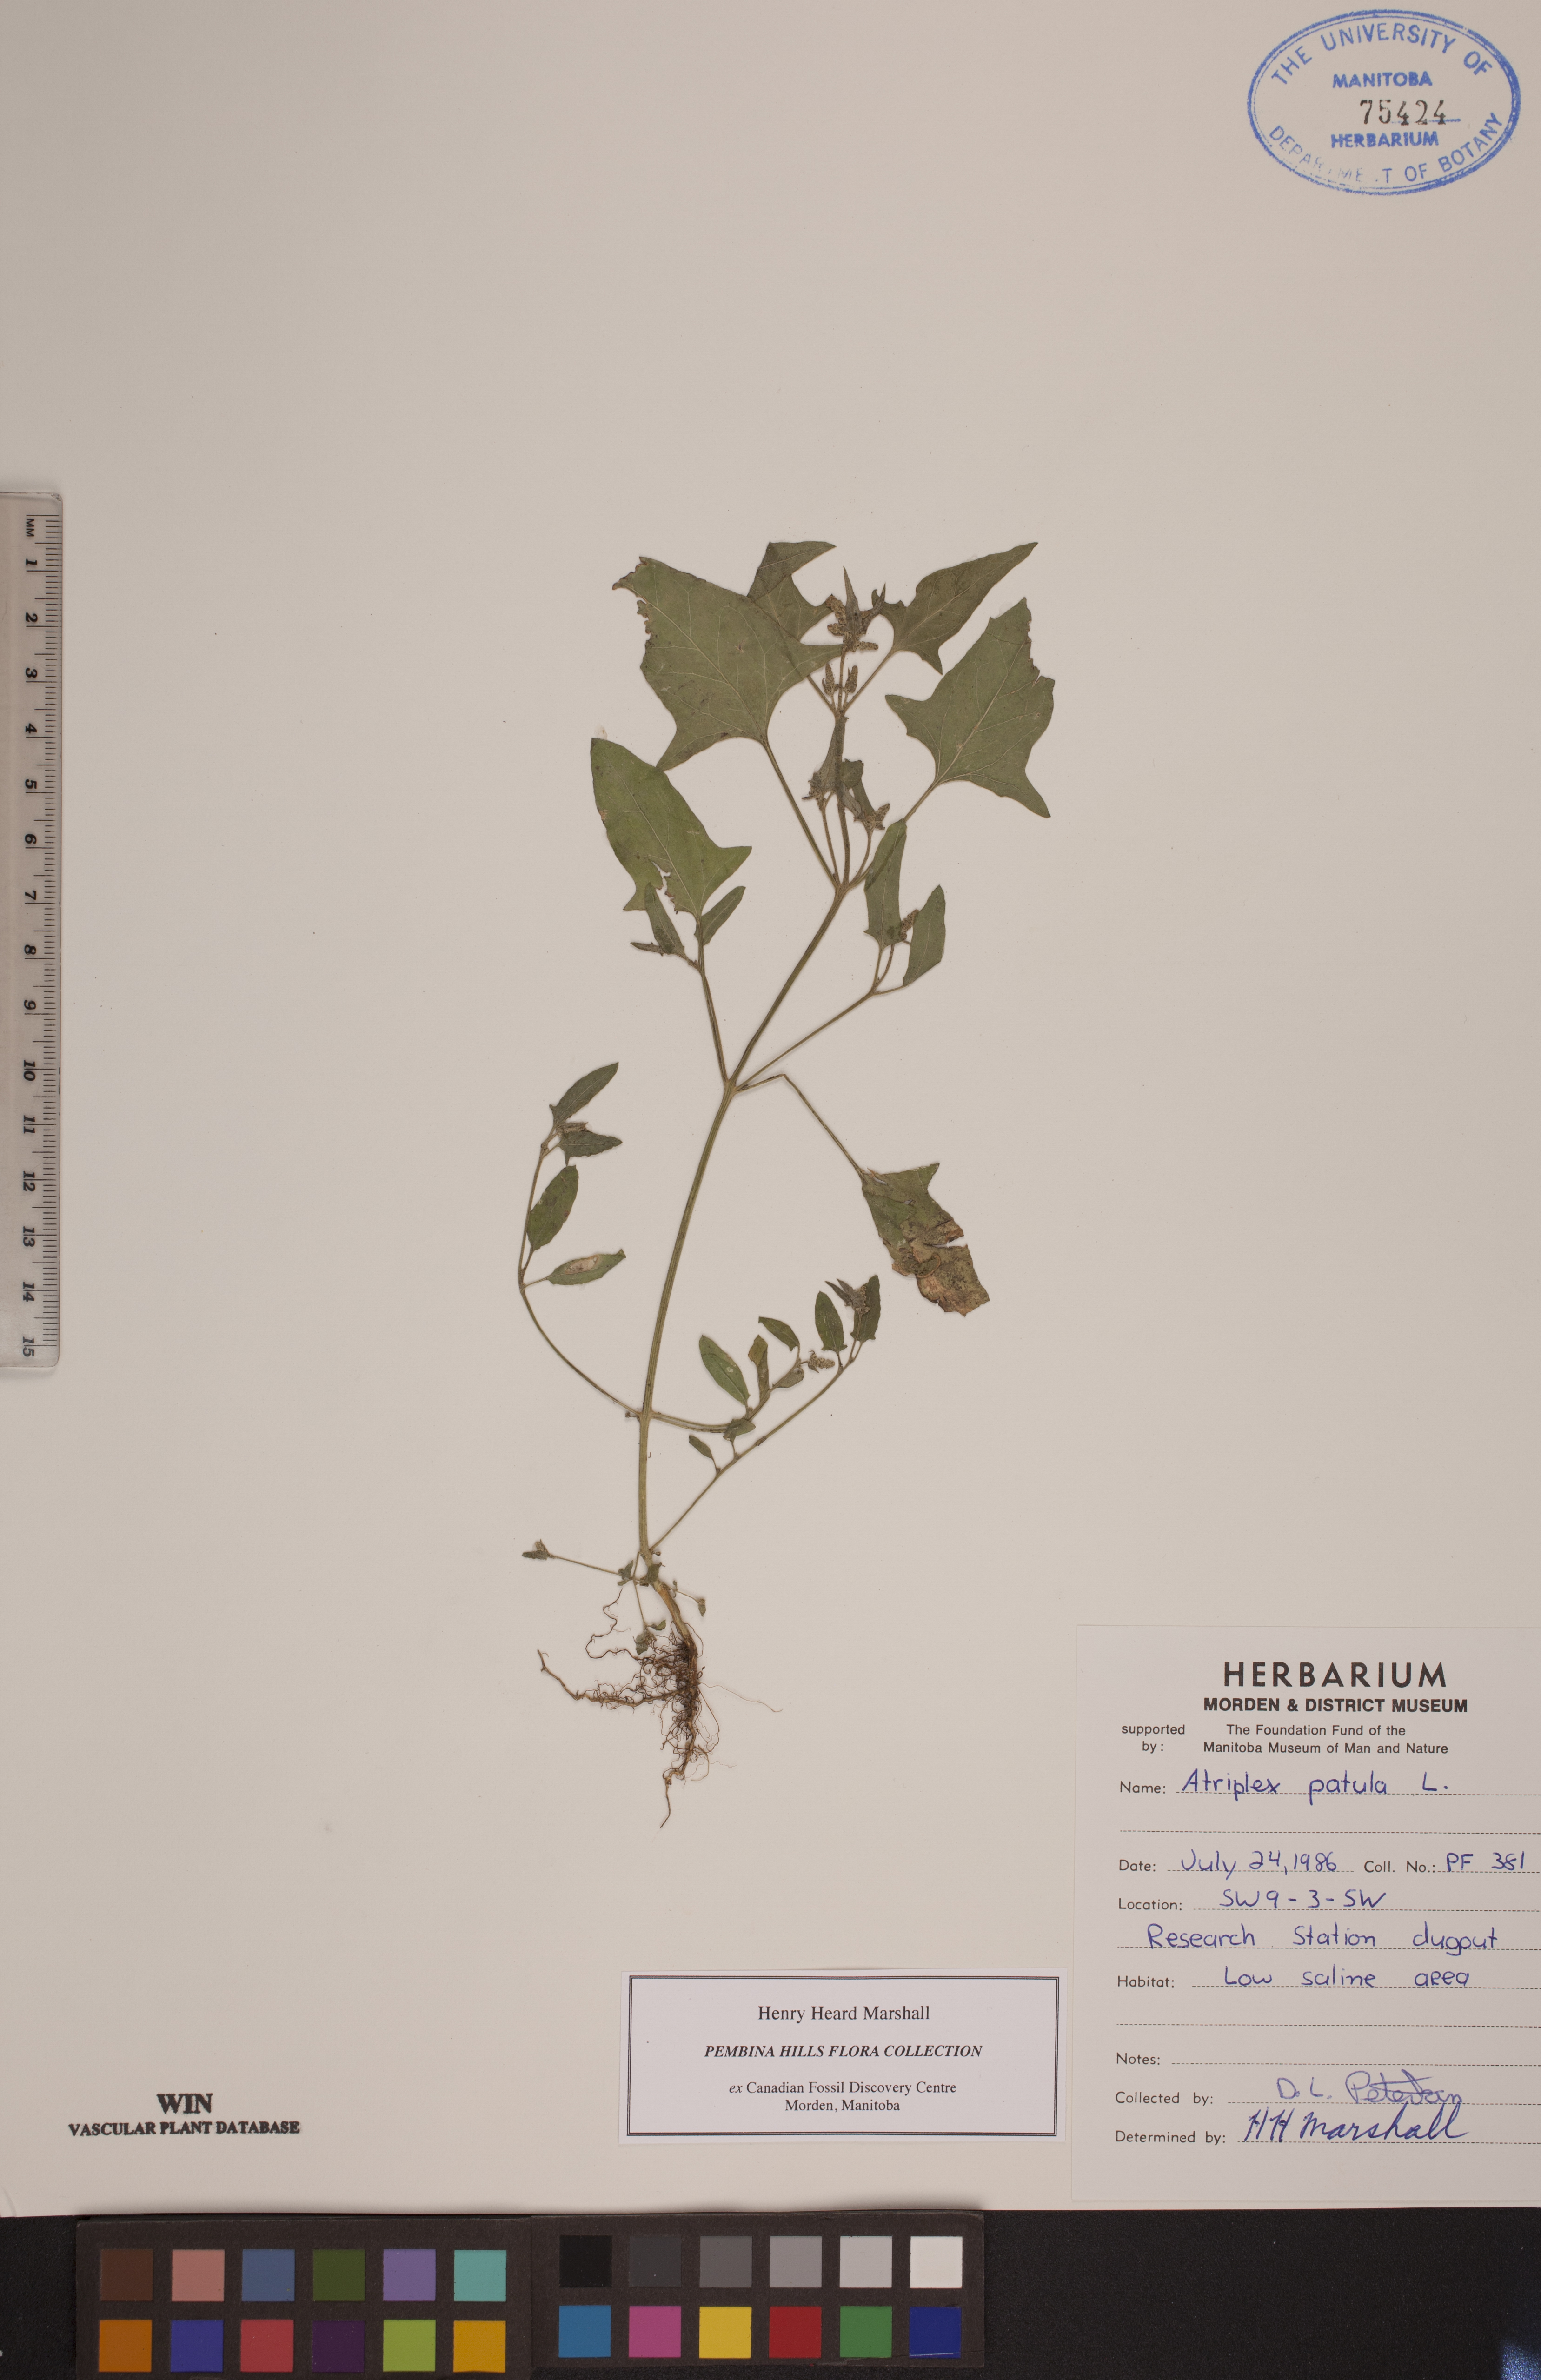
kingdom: Plantae
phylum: Tracheophyta
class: Magnoliopsida
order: Caryophyllales
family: Amaranthaceae
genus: Atriplex
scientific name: Atriplex patula
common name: Common orache
